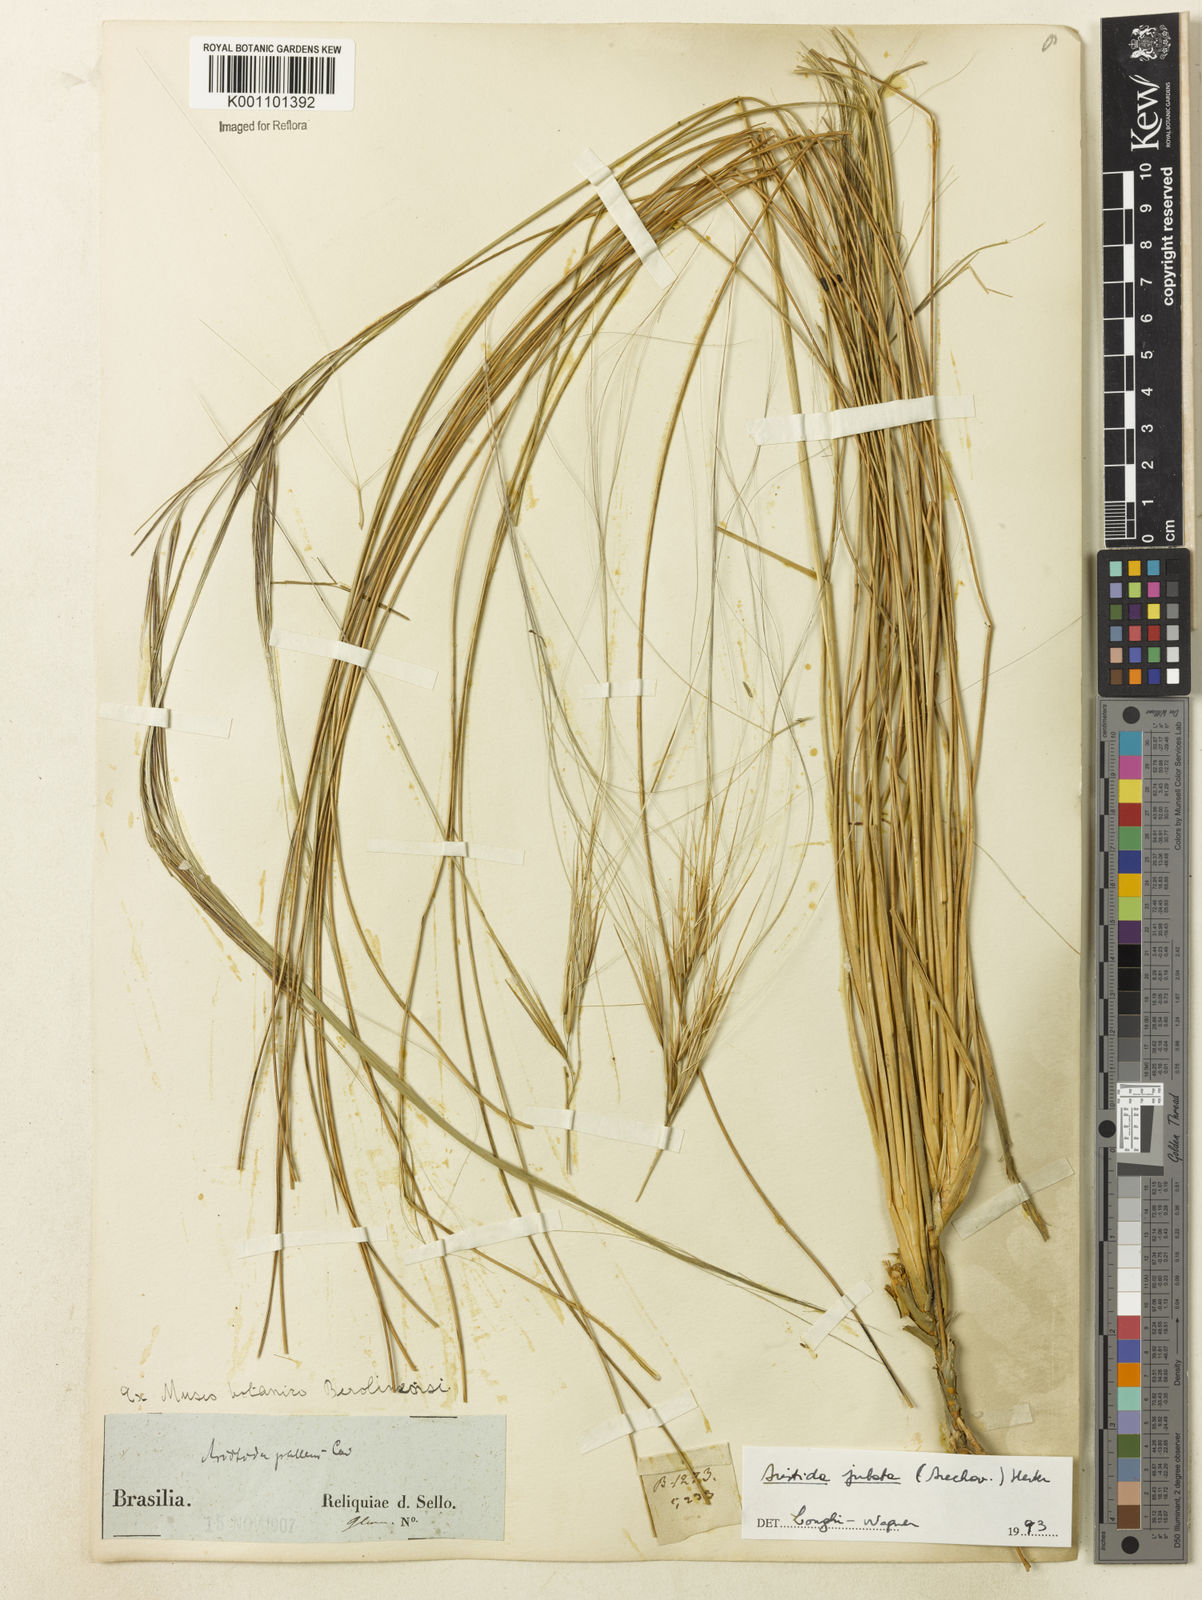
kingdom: Plantae
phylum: Tracheophyta
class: Liliopsida
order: Poales
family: Poaceae
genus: Aristida
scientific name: Aristida jubata
